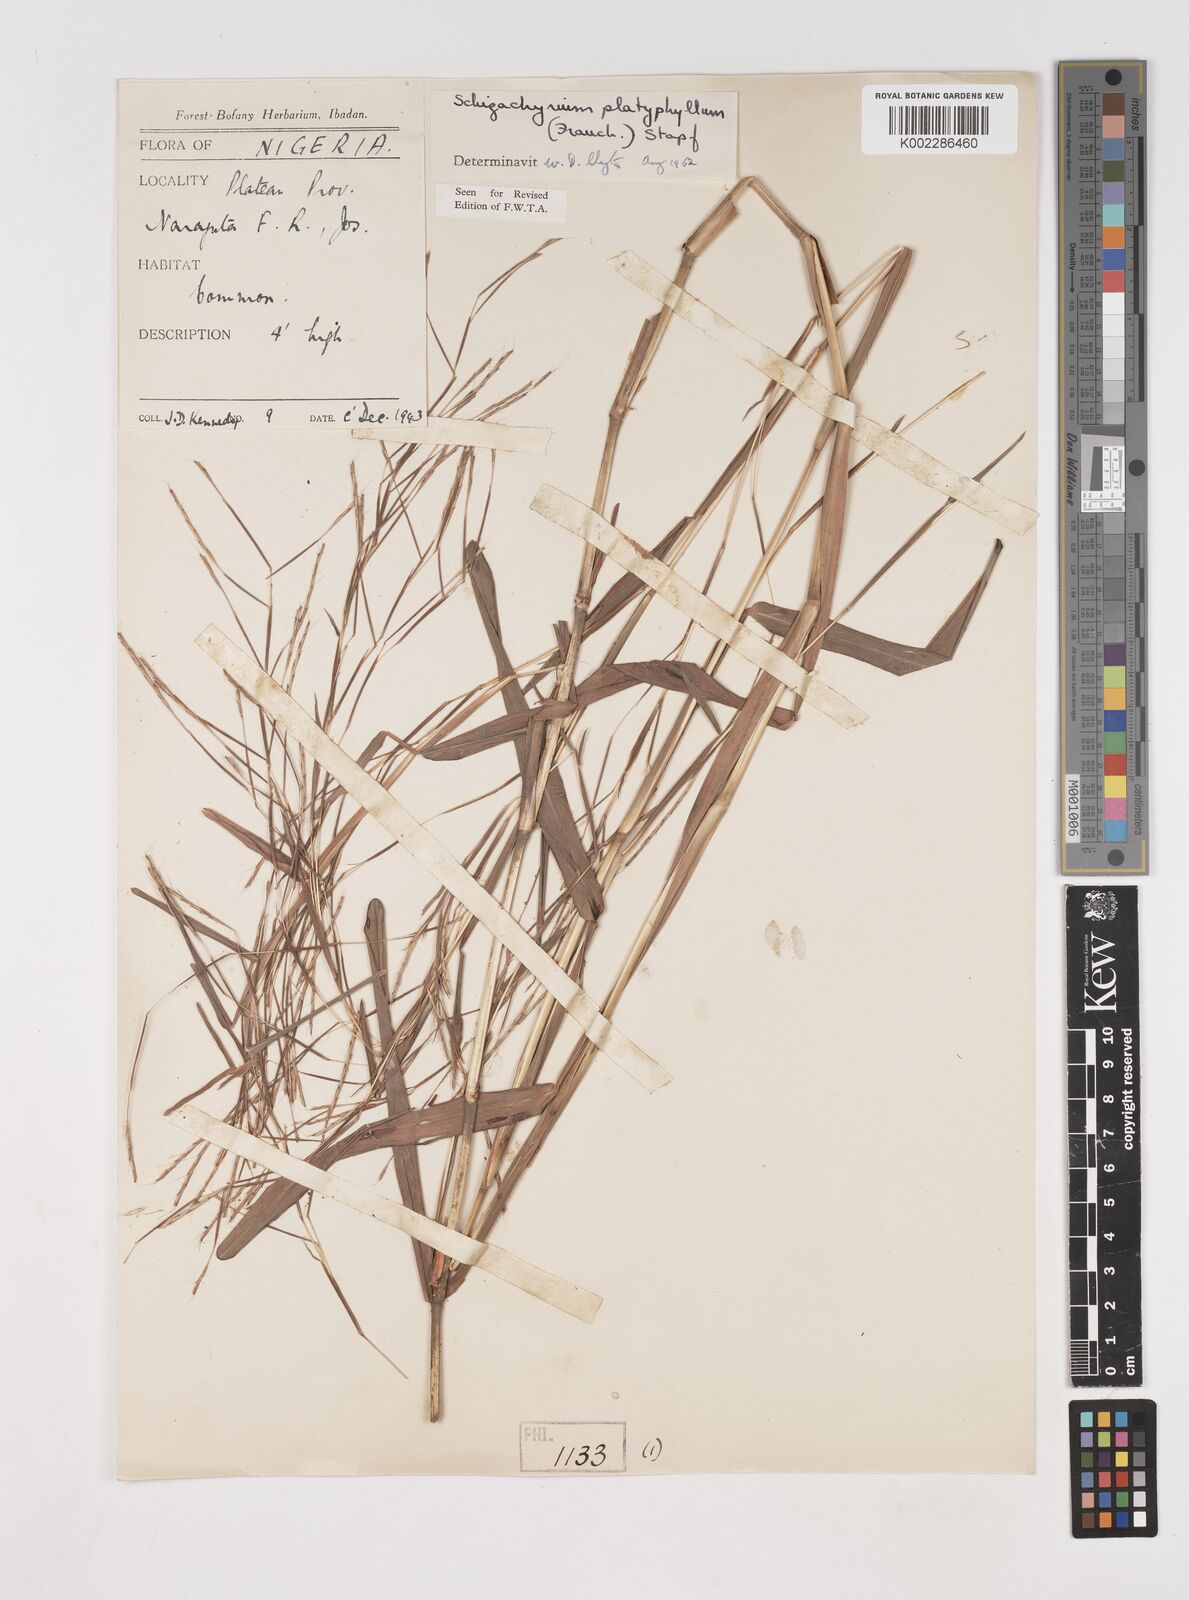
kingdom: Plantae
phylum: Tracheophyta
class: Liliopsida
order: Poales
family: Poaceae
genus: Schizachyrium
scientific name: Schizachyrium platyphyllum
